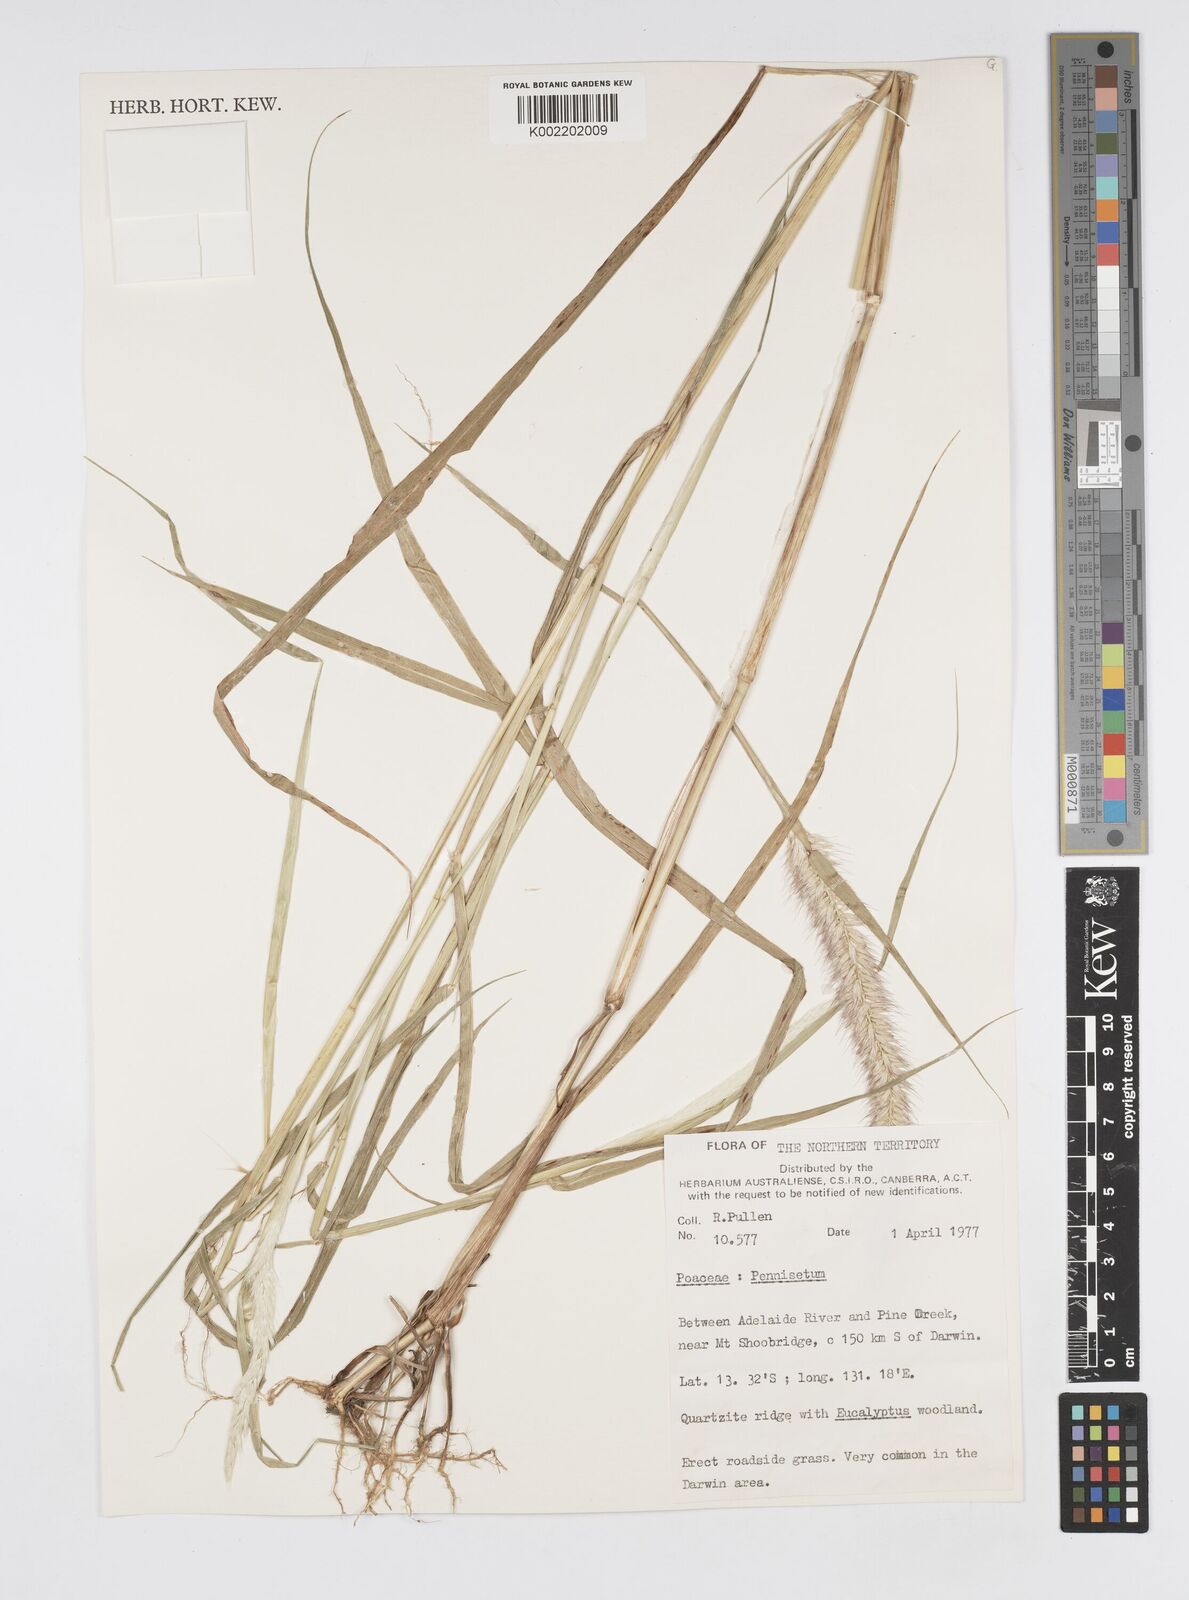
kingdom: Plantae
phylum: Tracheophyta
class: Liliopsida
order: Poales
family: Poaceae
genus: Cenchrus
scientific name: Cenchrus Pennisetum spec
